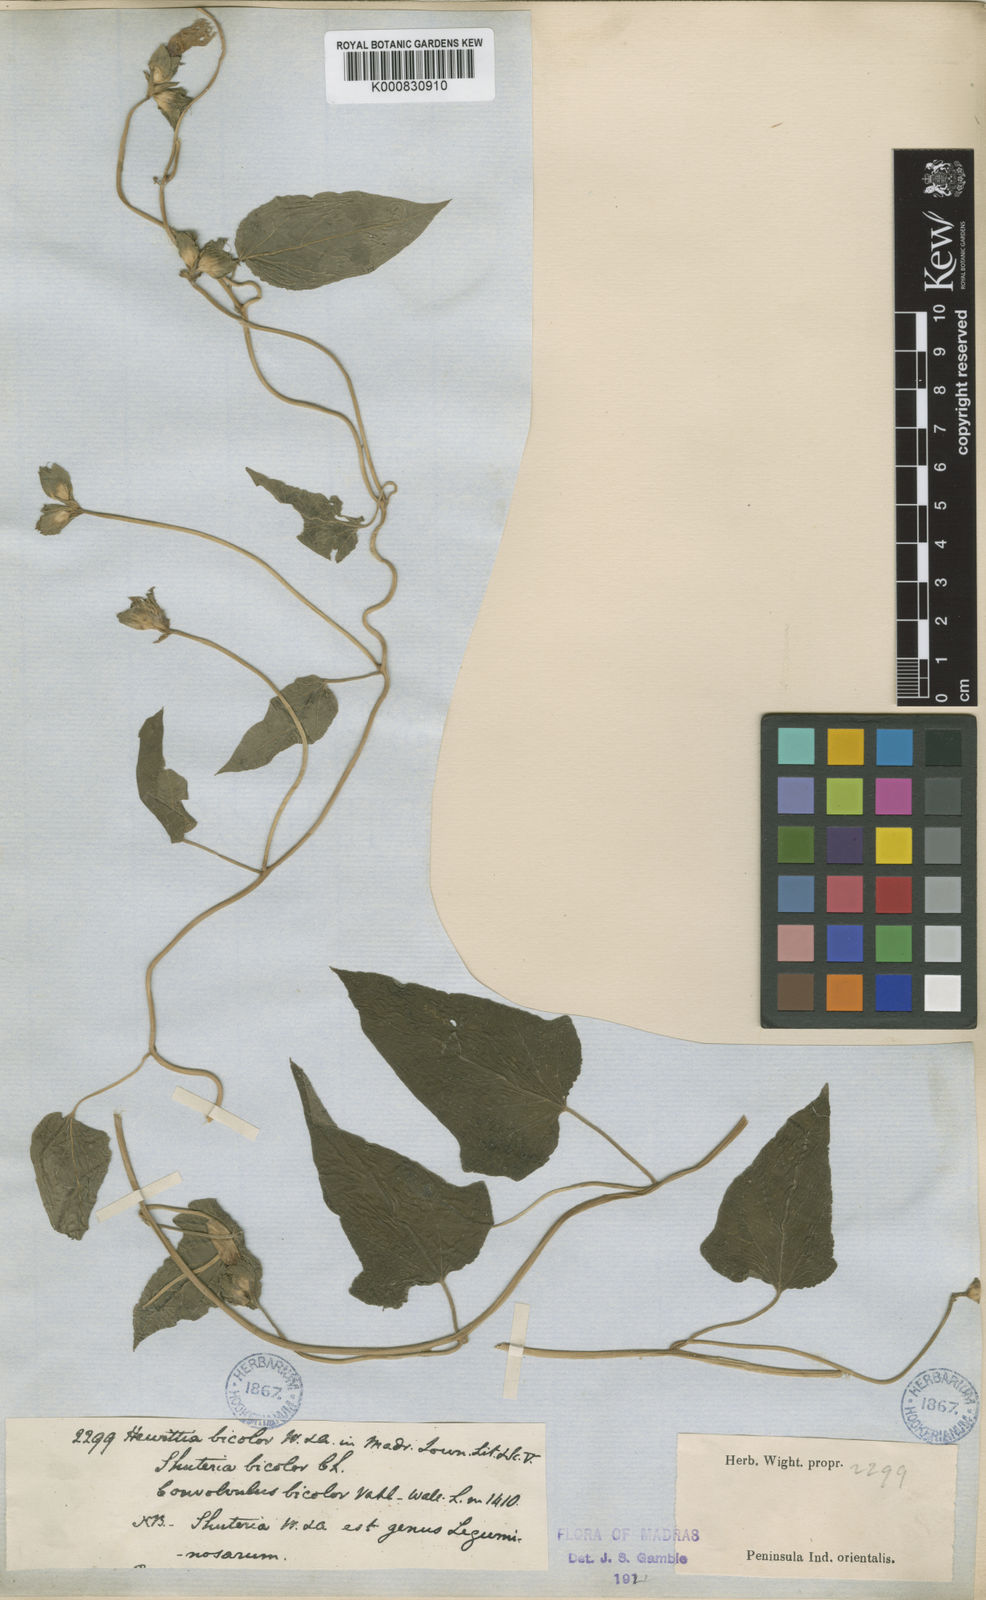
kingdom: Plantae
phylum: Tracheophyta
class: Magnoliopsida
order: Solanales
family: Convolvulaceae
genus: Hewittia
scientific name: Hewittia malabarica
